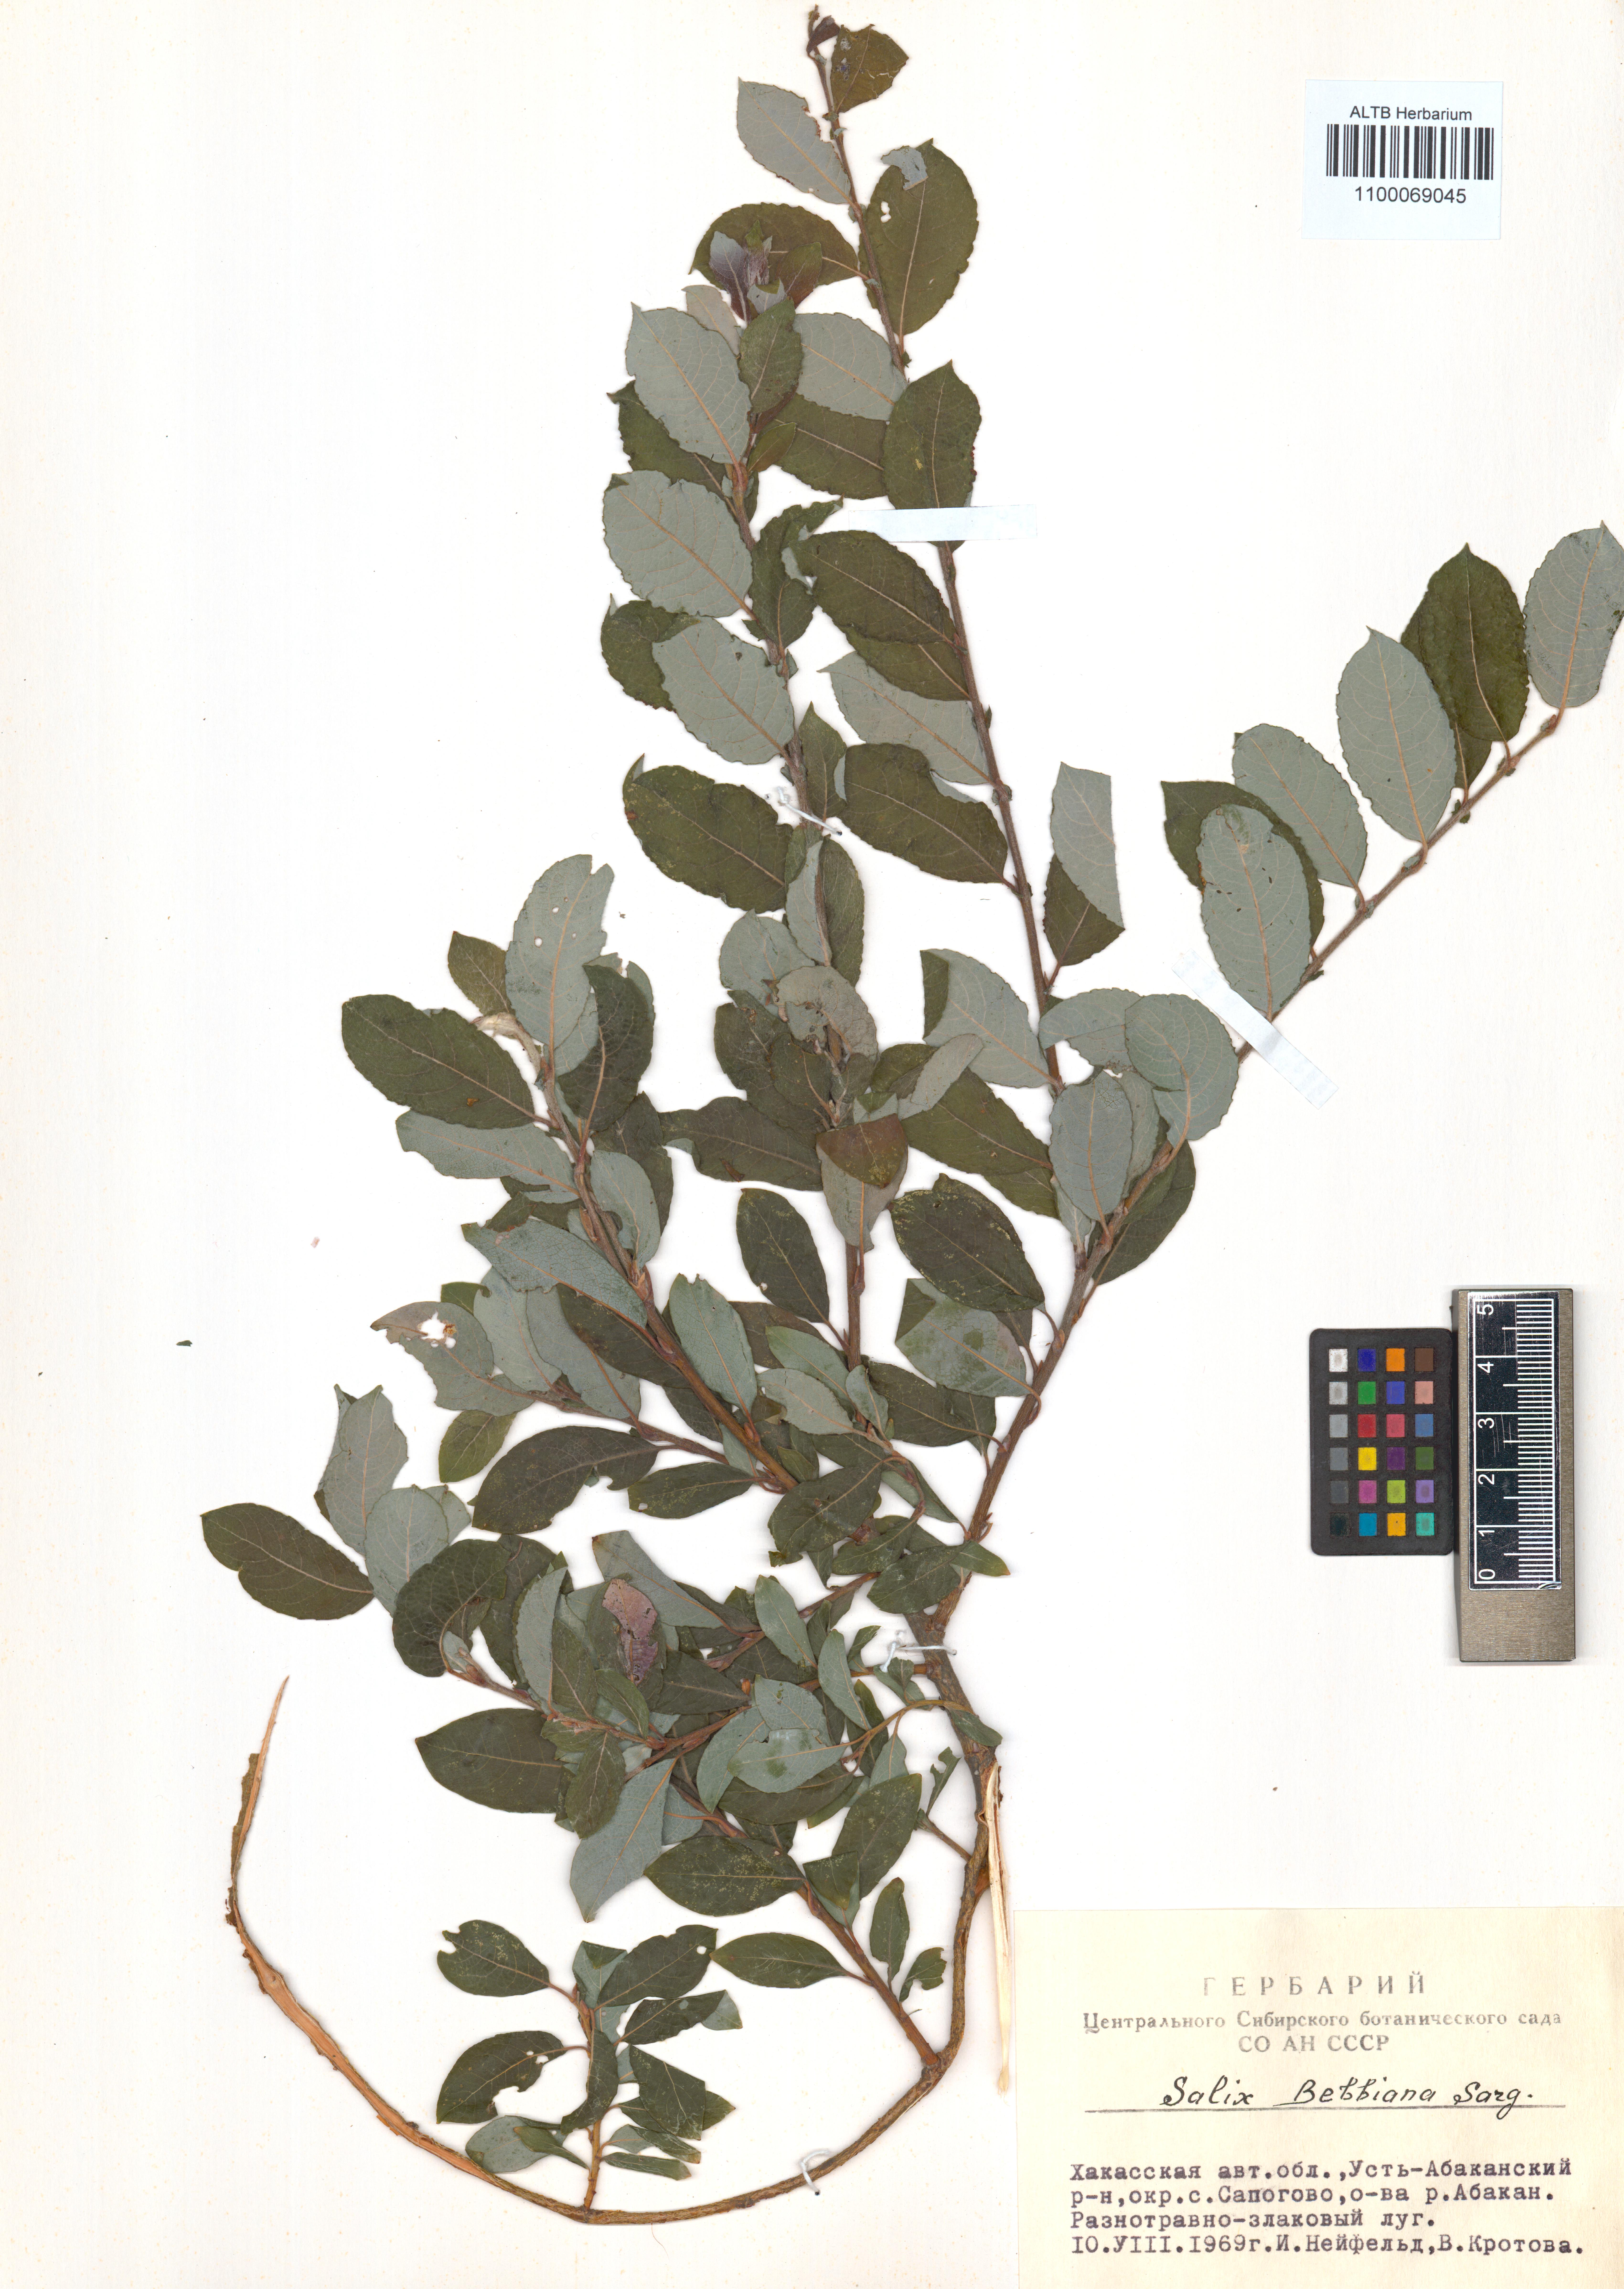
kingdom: Plantae
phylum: Tracheophyta
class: Magnoliopsida
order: Malpighiales
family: Salicaceae
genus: Salix
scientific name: Salix bebbiana
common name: Bebb's willow
